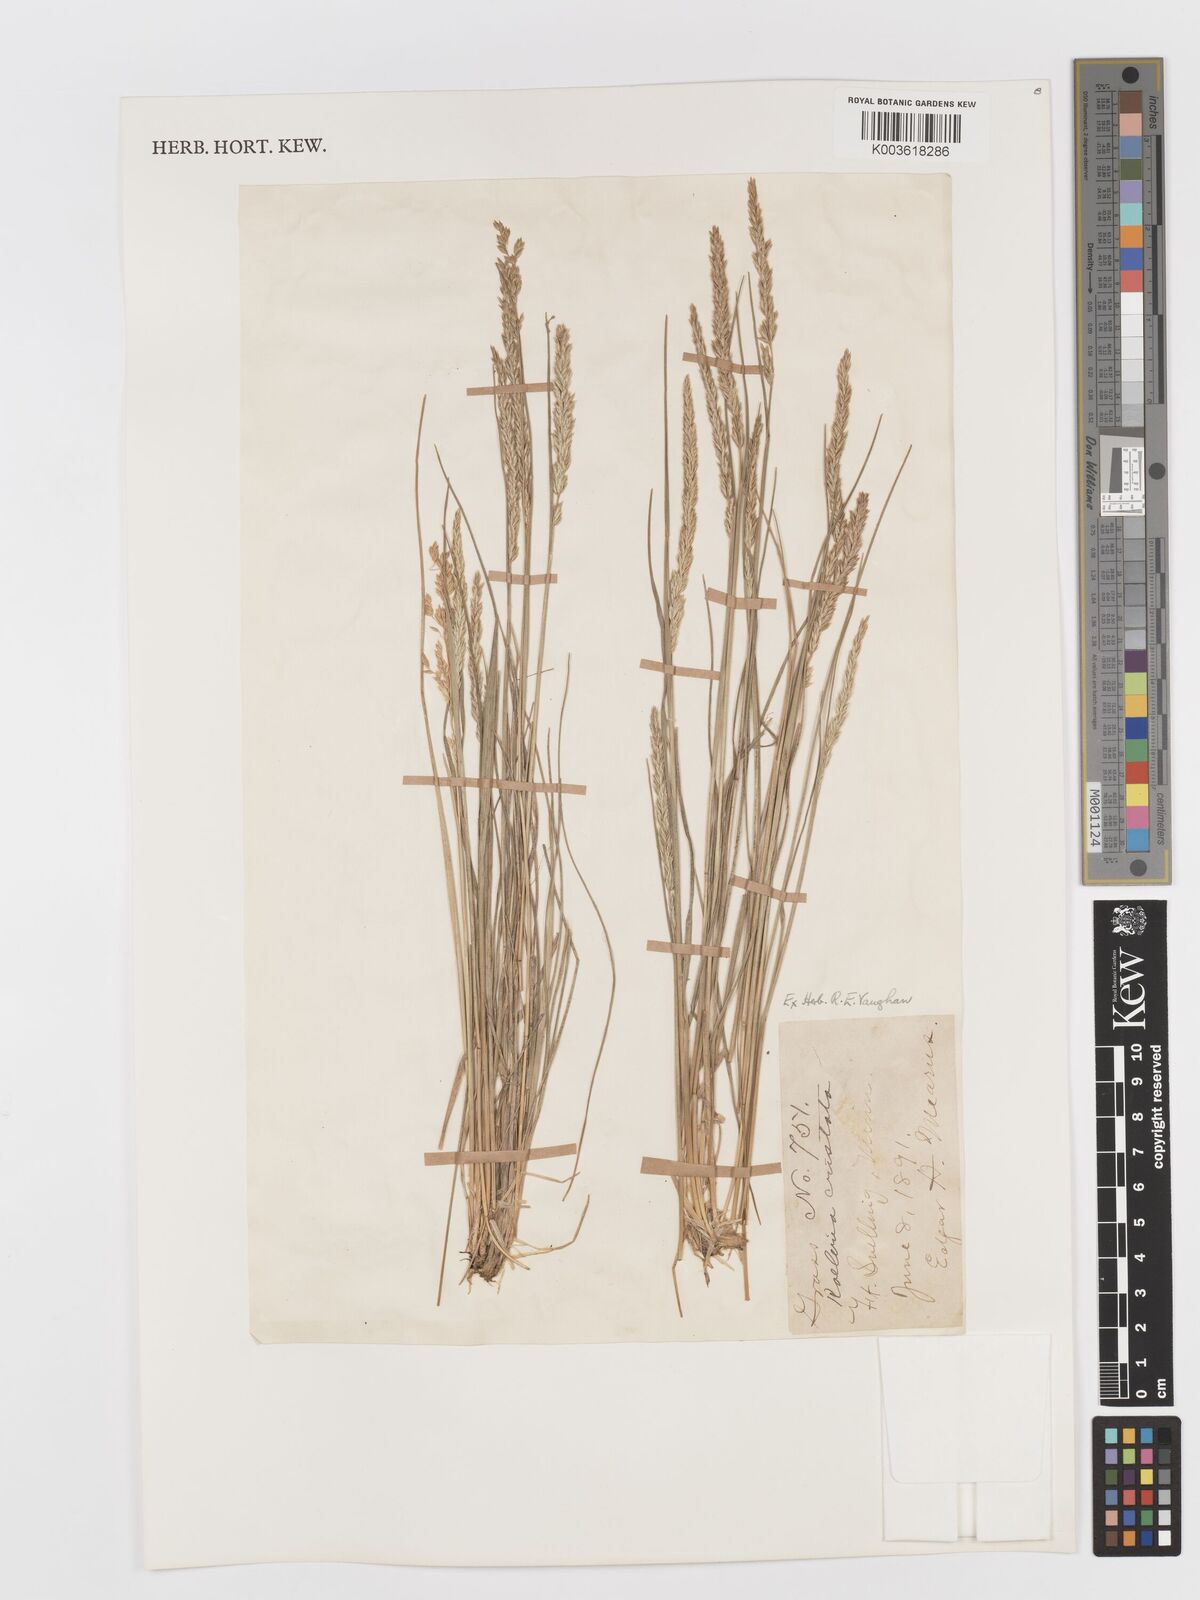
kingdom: Plantae
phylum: Tracheophyta
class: Liliopsida
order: Poales
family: Poaceae
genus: Koeleria
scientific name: Koeleria macrantha
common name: Crested hair-grass
